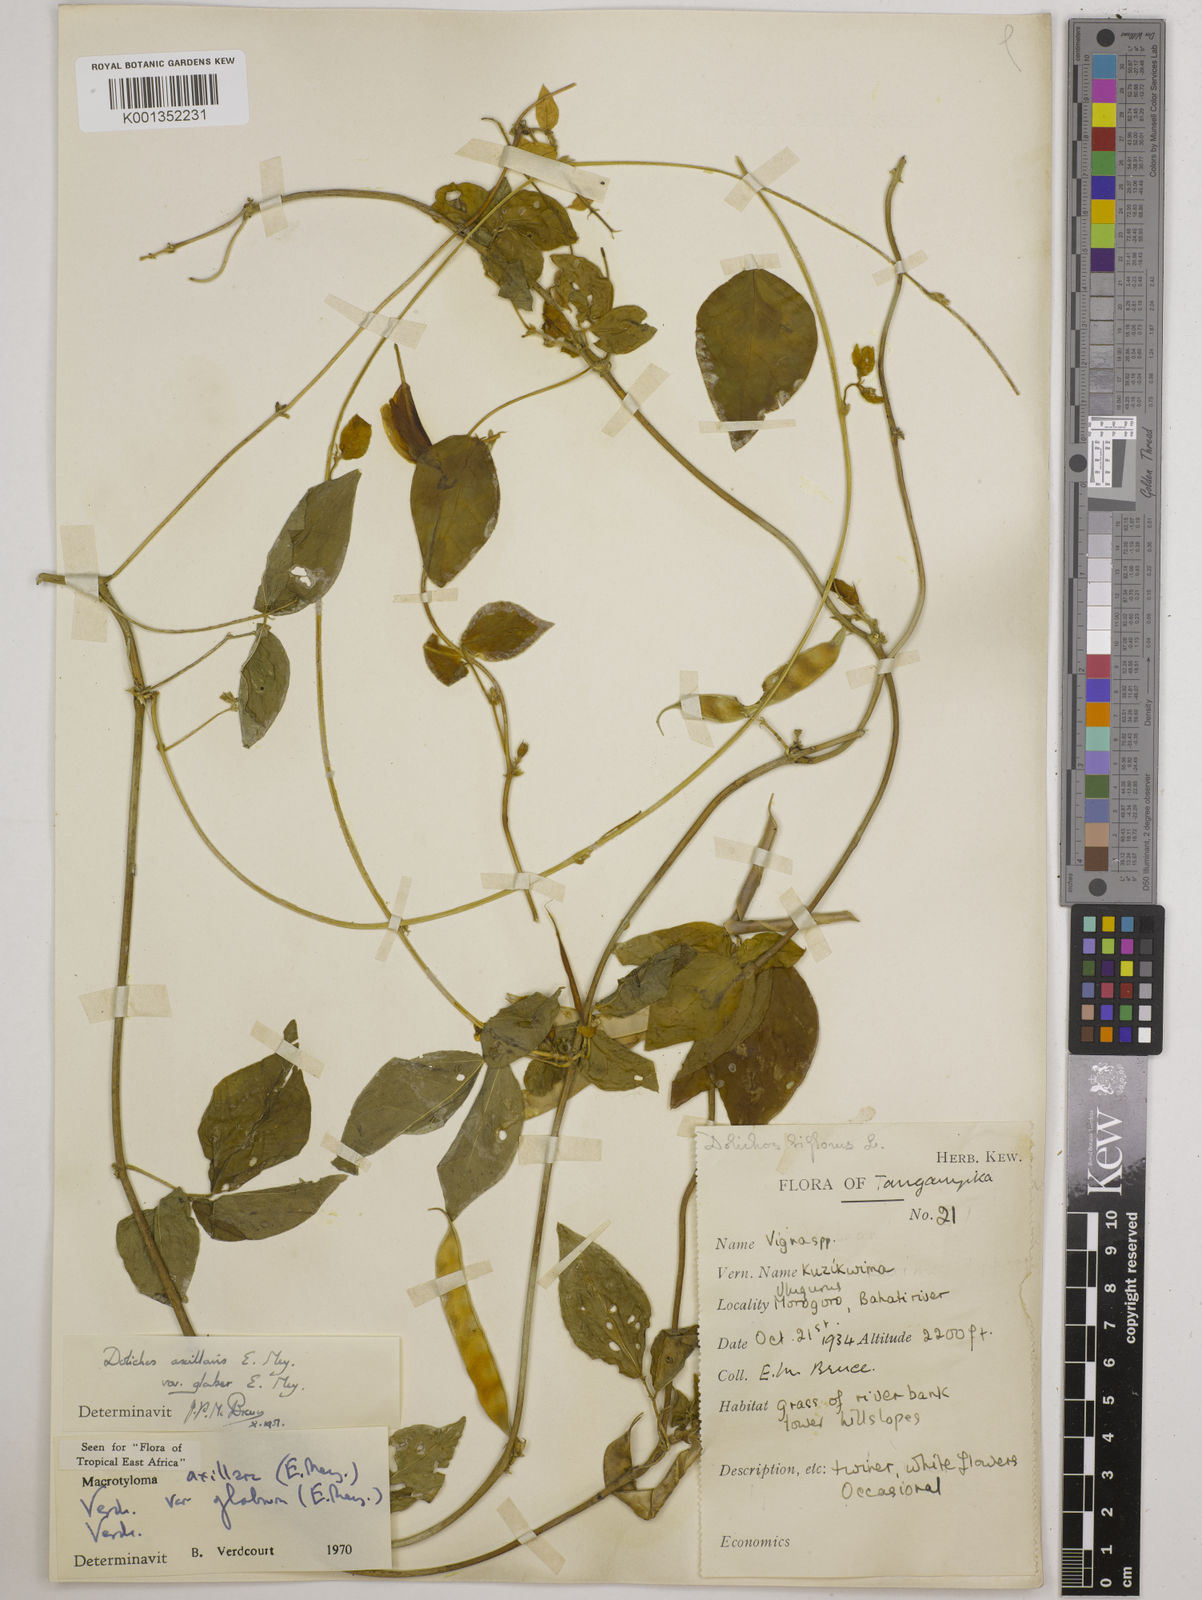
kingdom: Plantae
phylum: Tracheophyta
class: Magnoliopsida
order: Fabales
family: Fabaceae
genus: Macrotyloma
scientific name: Macrotyloma
